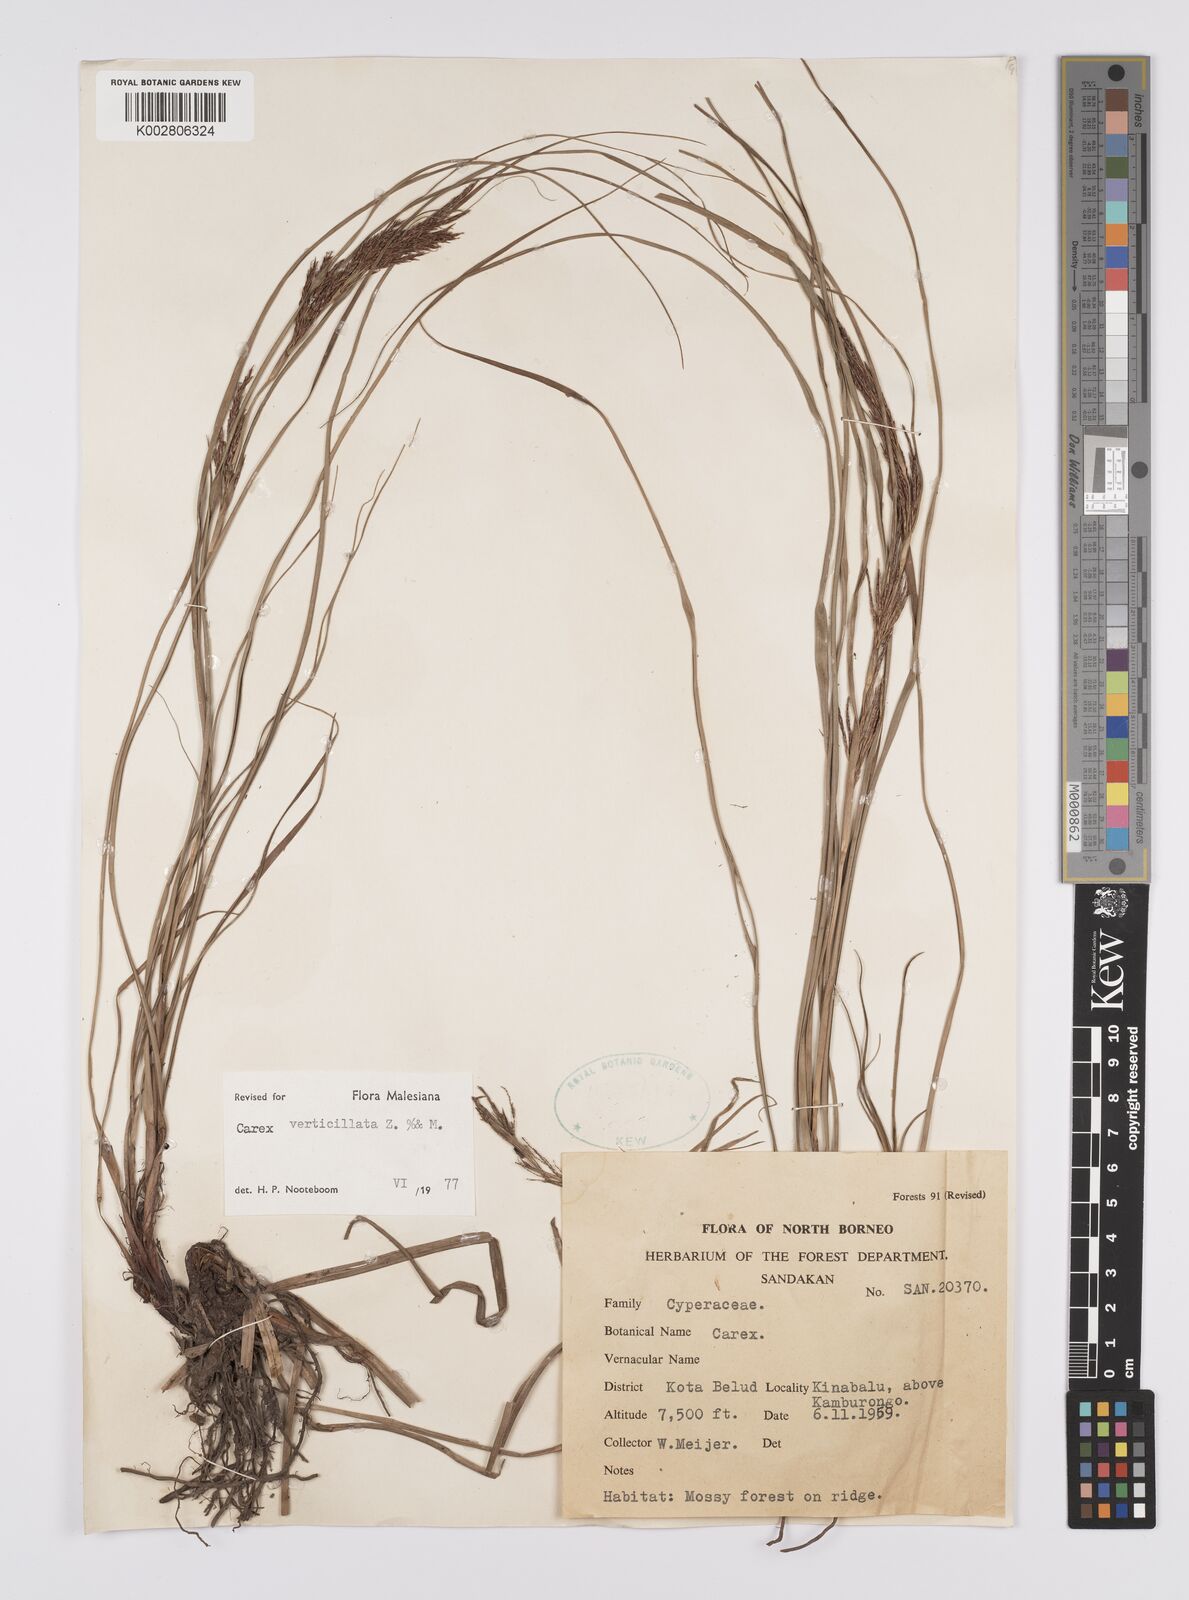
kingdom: Plantae
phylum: Tracheophyta
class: Liliopsida
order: Poales
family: Cyperaceae
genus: Carex
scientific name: Carex verticillata
